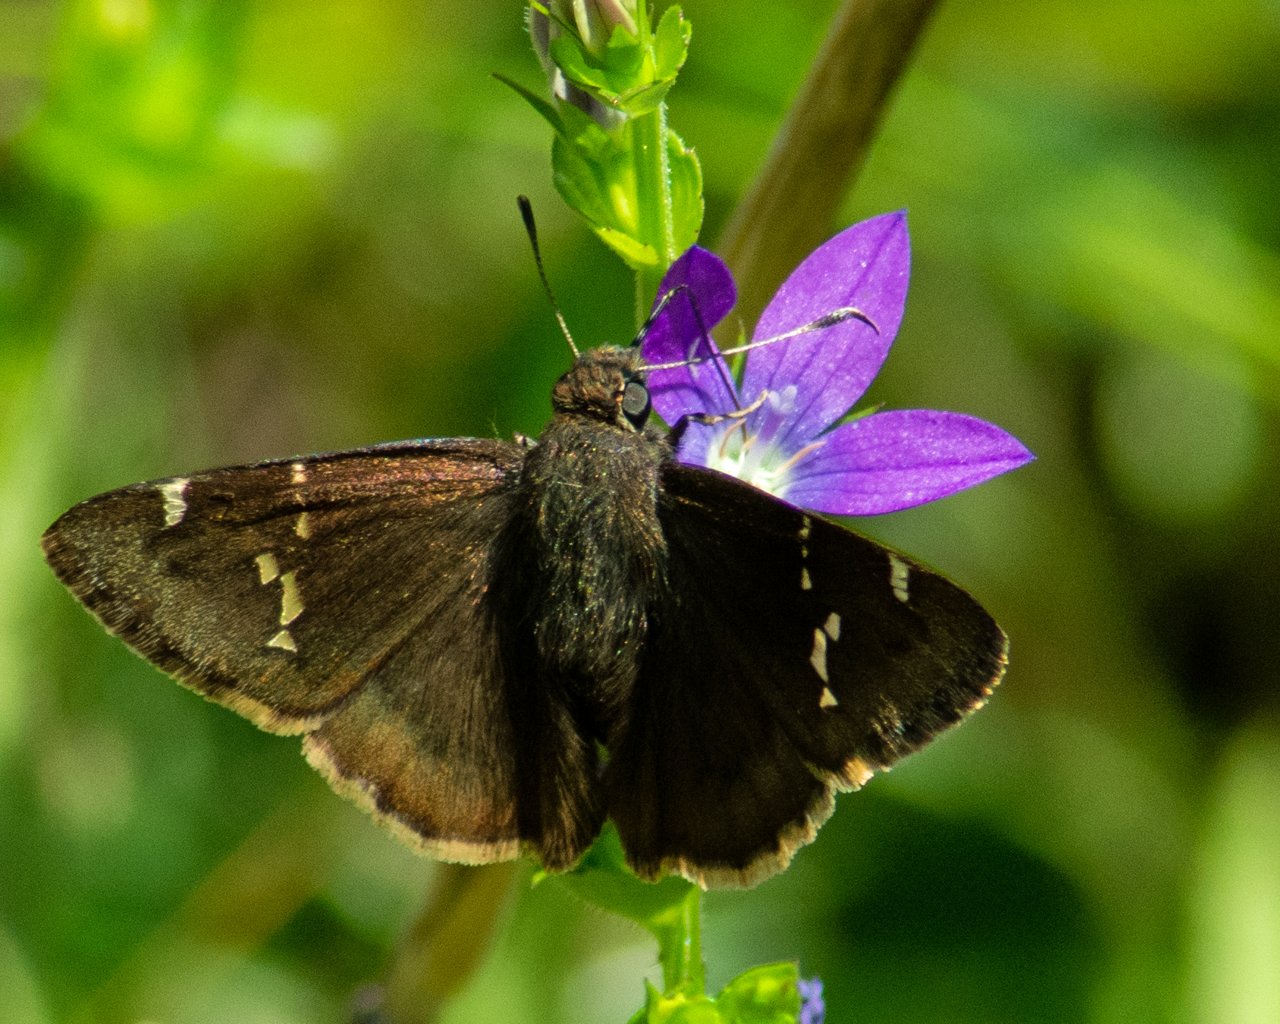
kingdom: Animalia
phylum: Arthropoda
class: Insecta
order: Lepidoptera
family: Hesperiidae
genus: Autochton
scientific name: Autochton
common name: Southern Cloudywing
